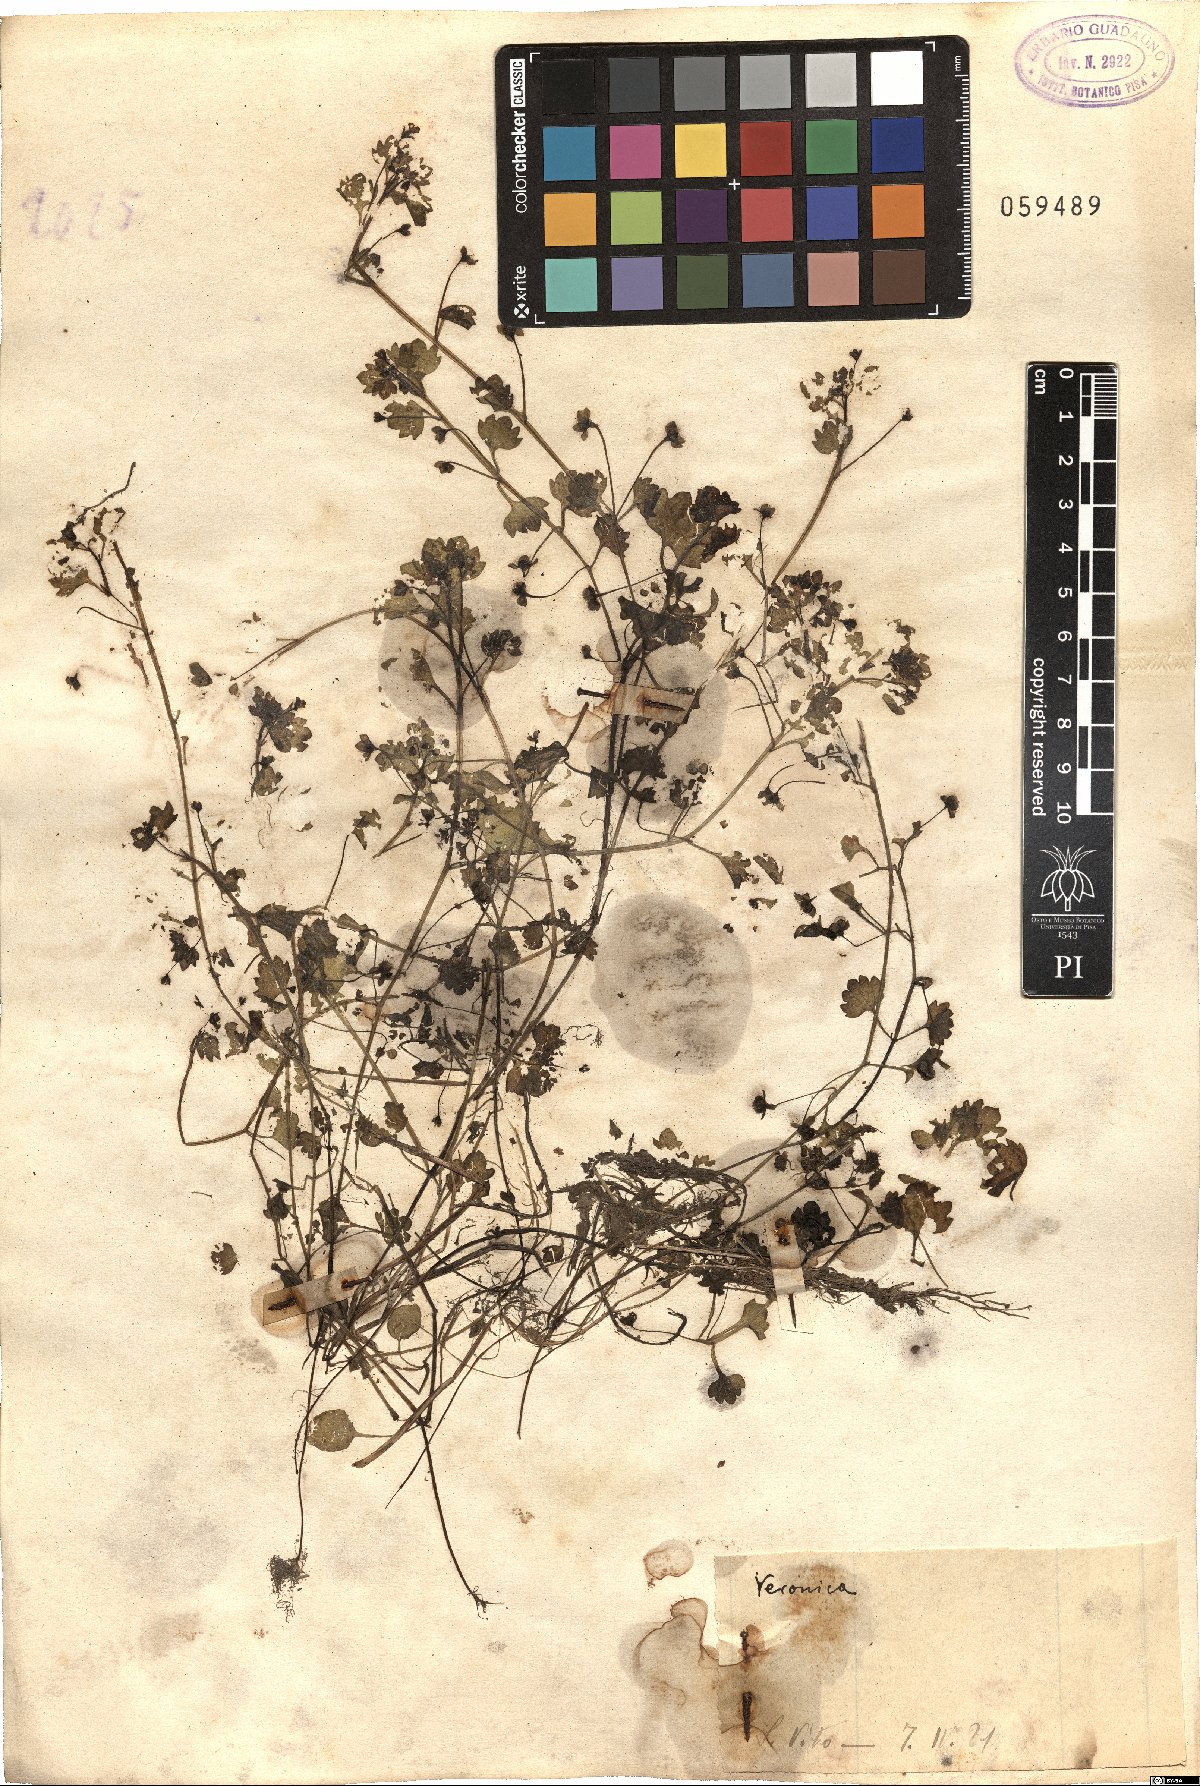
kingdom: Plantae
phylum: Tracheophyta
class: Magnoliopsida
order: Lamiales
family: Plantaginaceae
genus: Veronica
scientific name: Veronica
